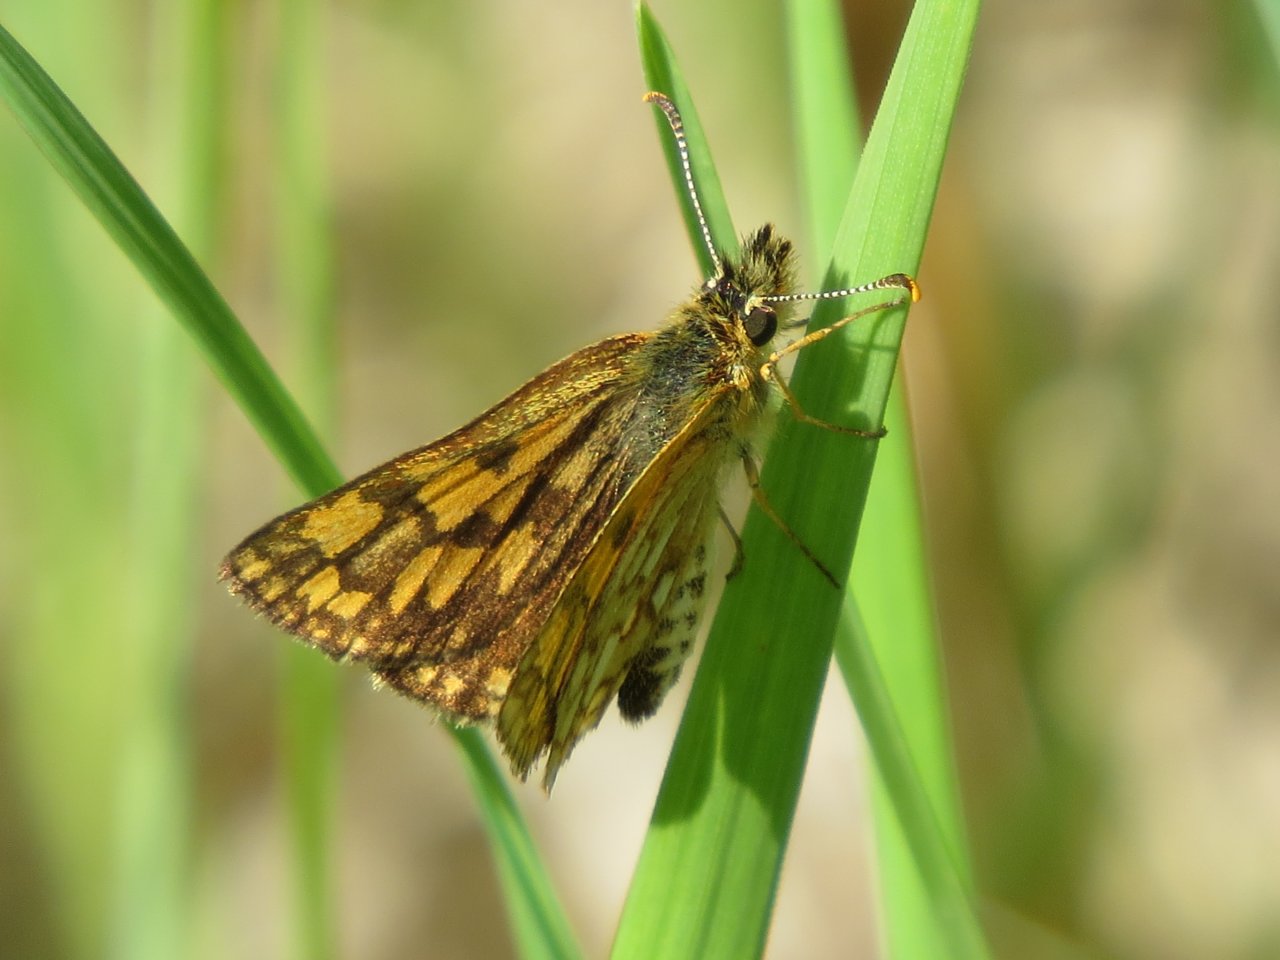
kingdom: Animalia
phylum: Arthropoda
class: Insecta
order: Lepidoptera
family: Hesperiidae
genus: Carterocephalus
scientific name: Carterocephalus palaemon
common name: Chequered Skipper
